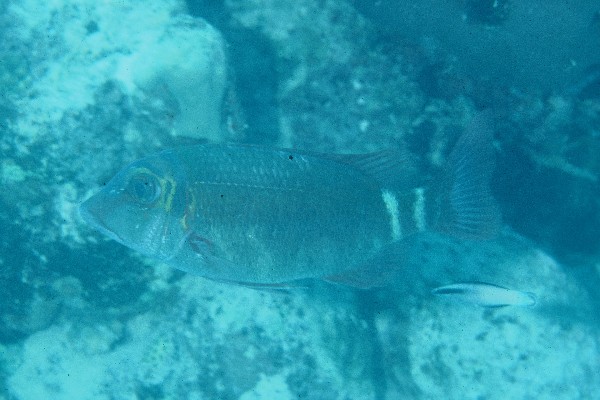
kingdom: Animalia
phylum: Chordata
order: Perciformes
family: Lethrinidae
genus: Lethrinus
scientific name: Lethrinus erythropterus
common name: Longfin emperor
